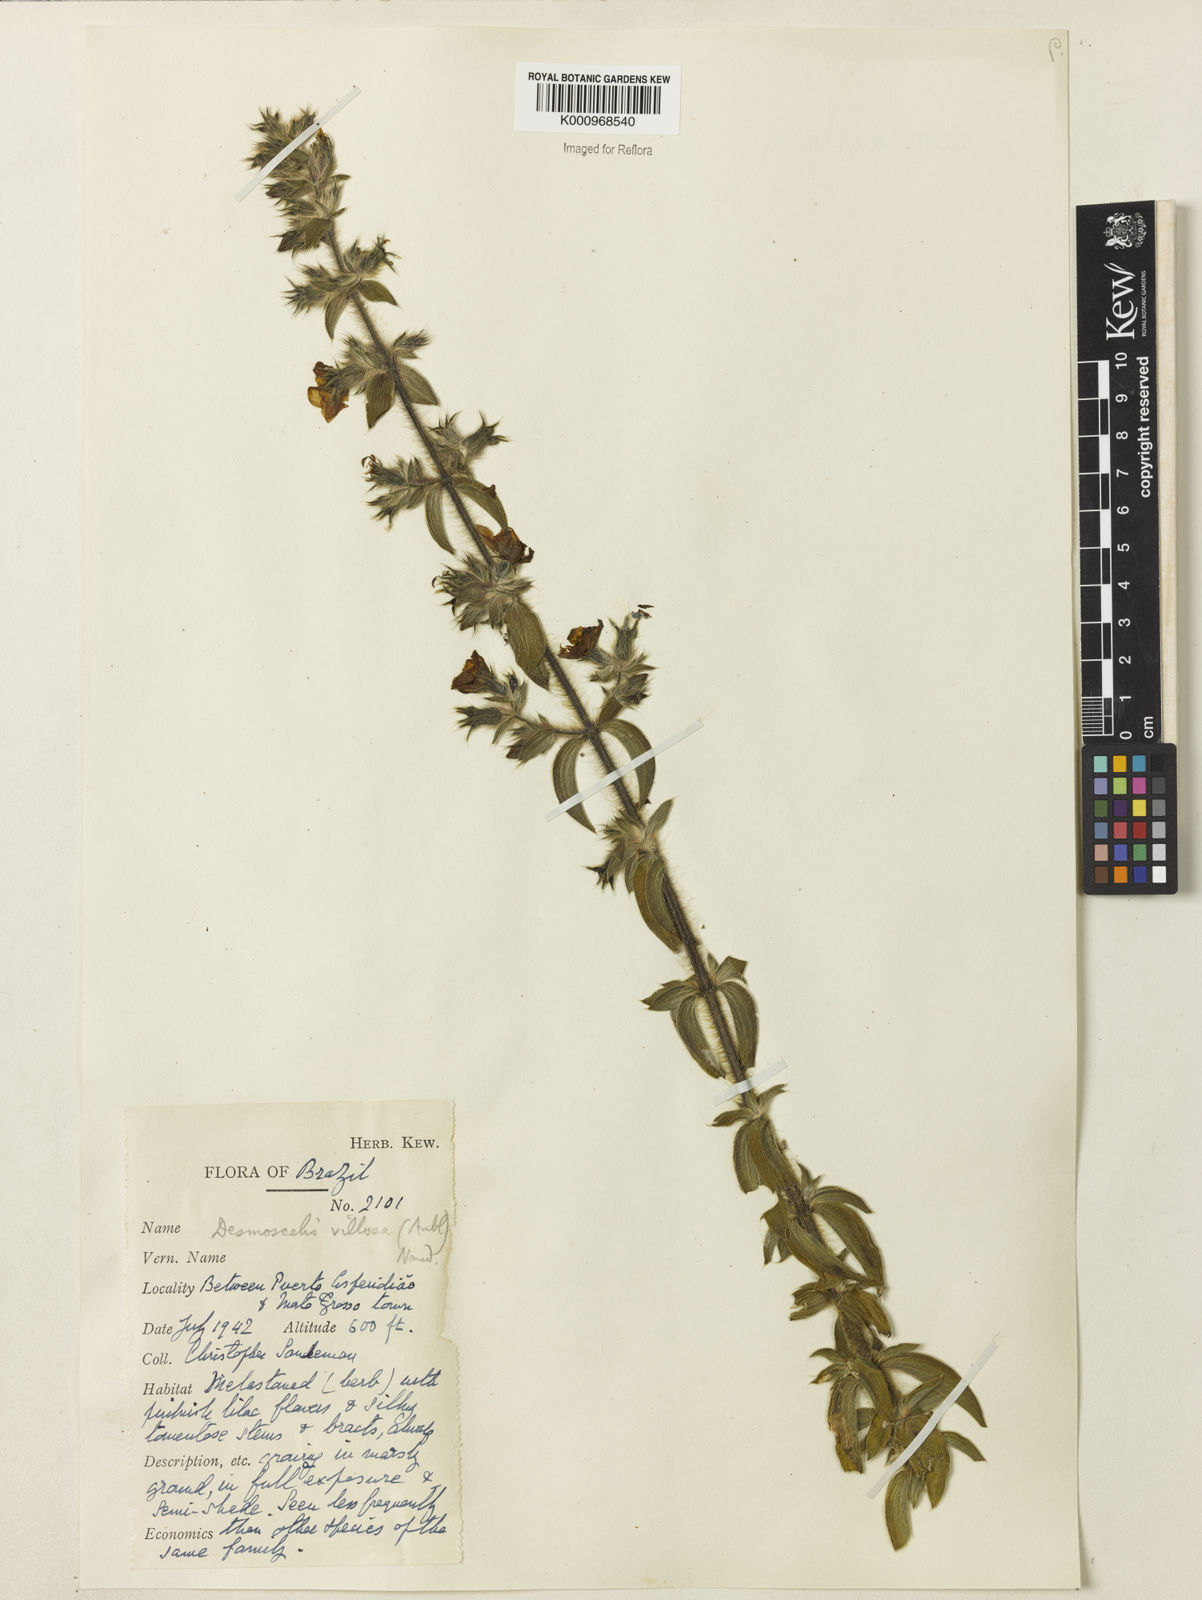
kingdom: Plantae
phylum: Tracheophyta
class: Magnoliopsida
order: Myrtales
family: Melastomataceae
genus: Desmoscelis
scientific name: Desmoscelis villosa
